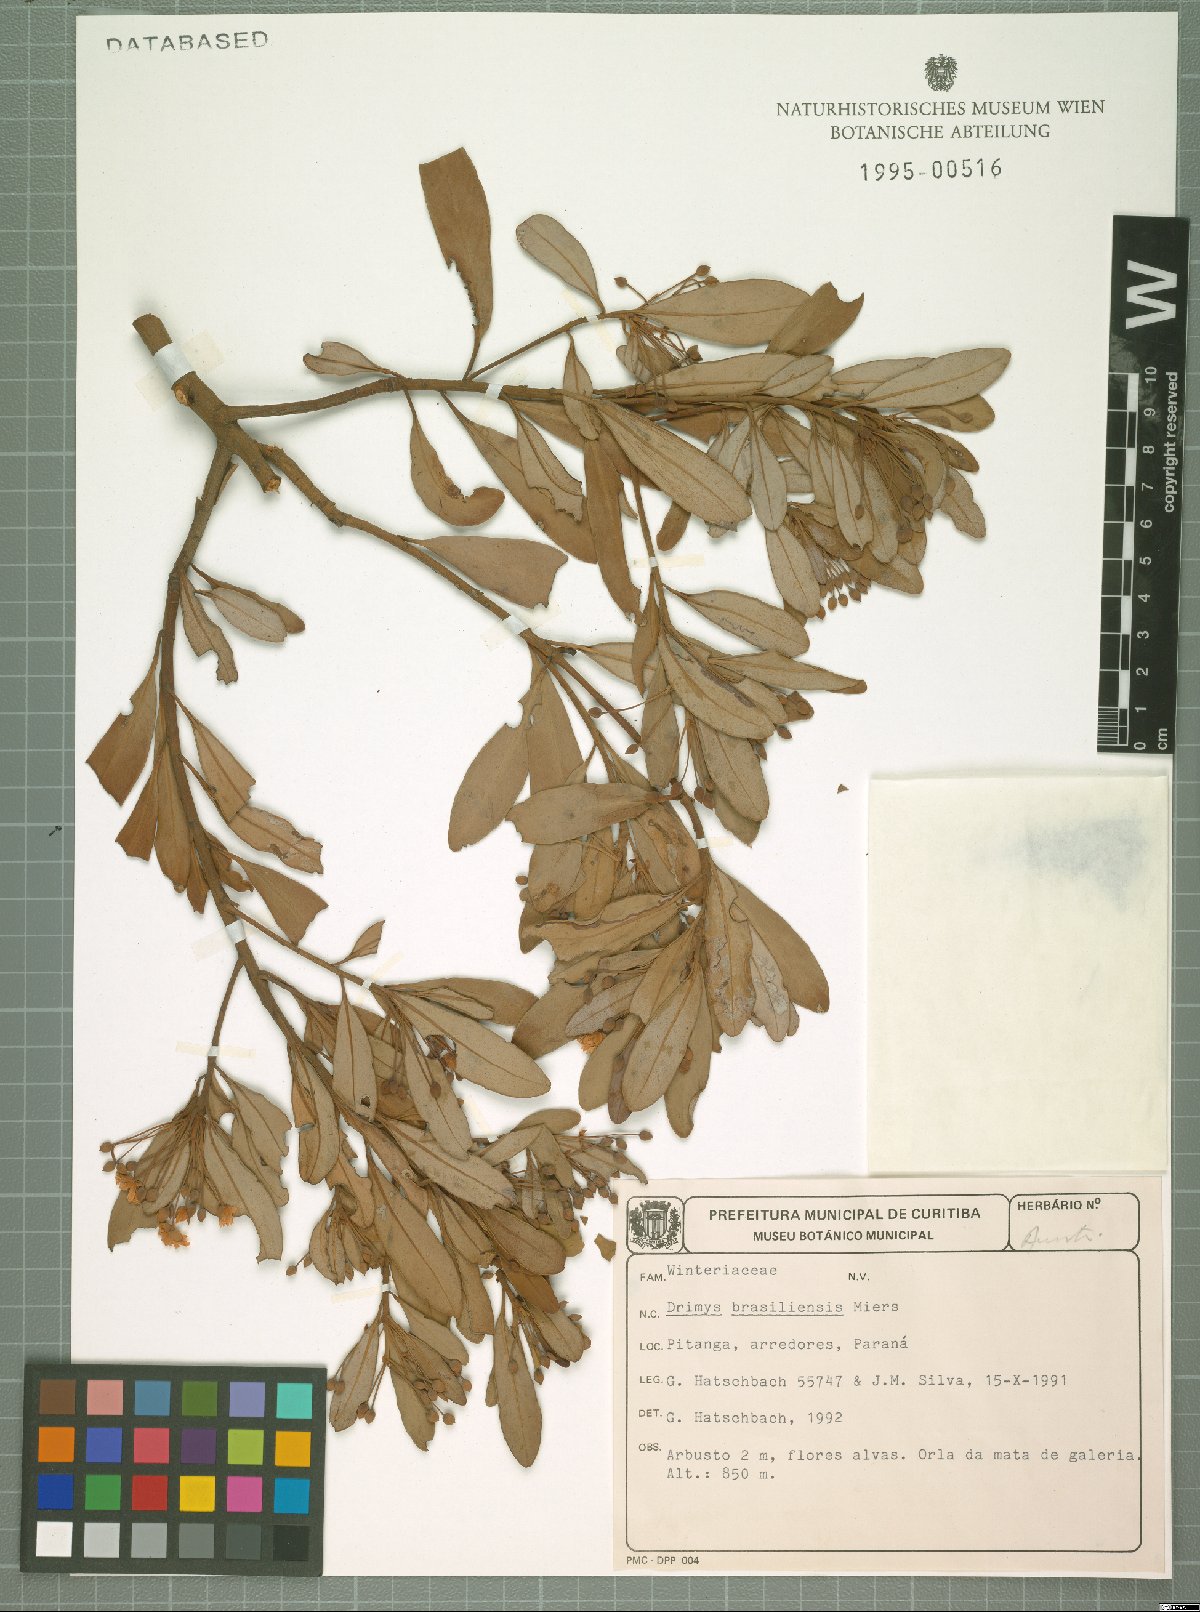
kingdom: Plantae
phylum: Tracheophyta
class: Magnoliopsida
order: Canellales
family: Winteraceae
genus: Drimys
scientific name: Drimys brasiliensis
